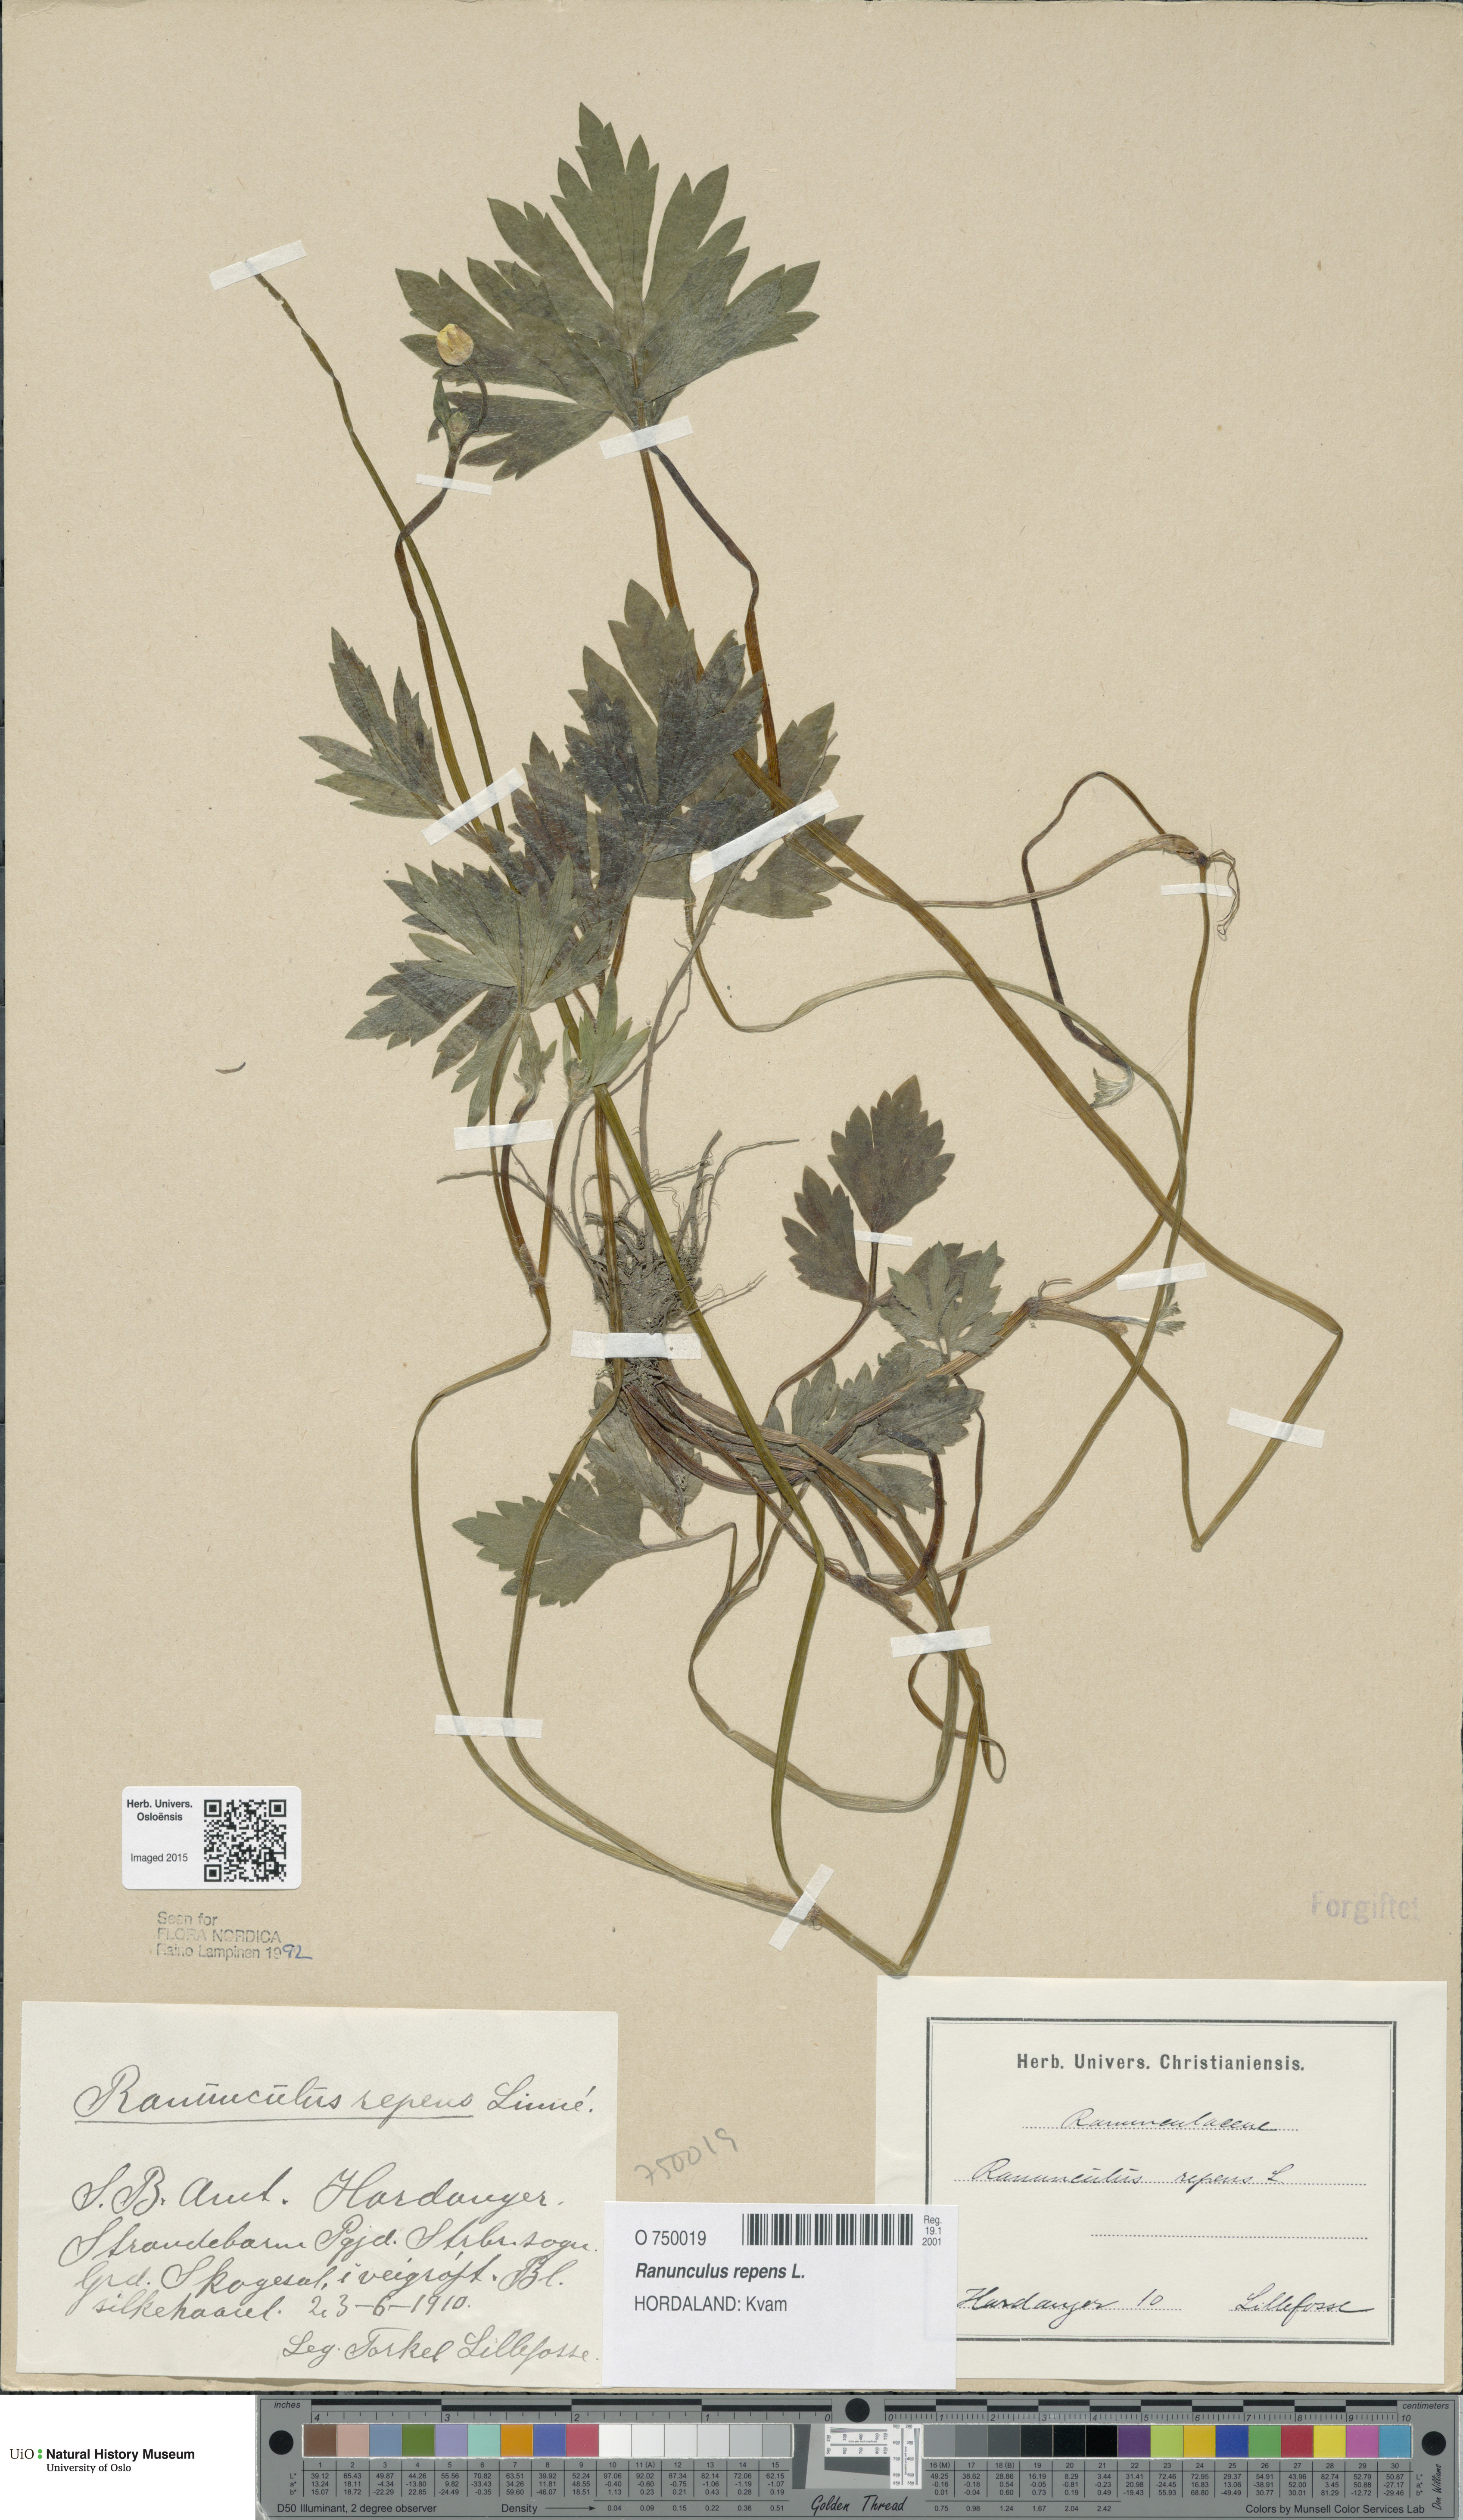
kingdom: Plantae
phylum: Tracheophyta
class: Magnoliopsida
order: Ranunculales
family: Ranunculaceae
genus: Ranunculus
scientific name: Ranunculus repens
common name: Creeping buttercup
